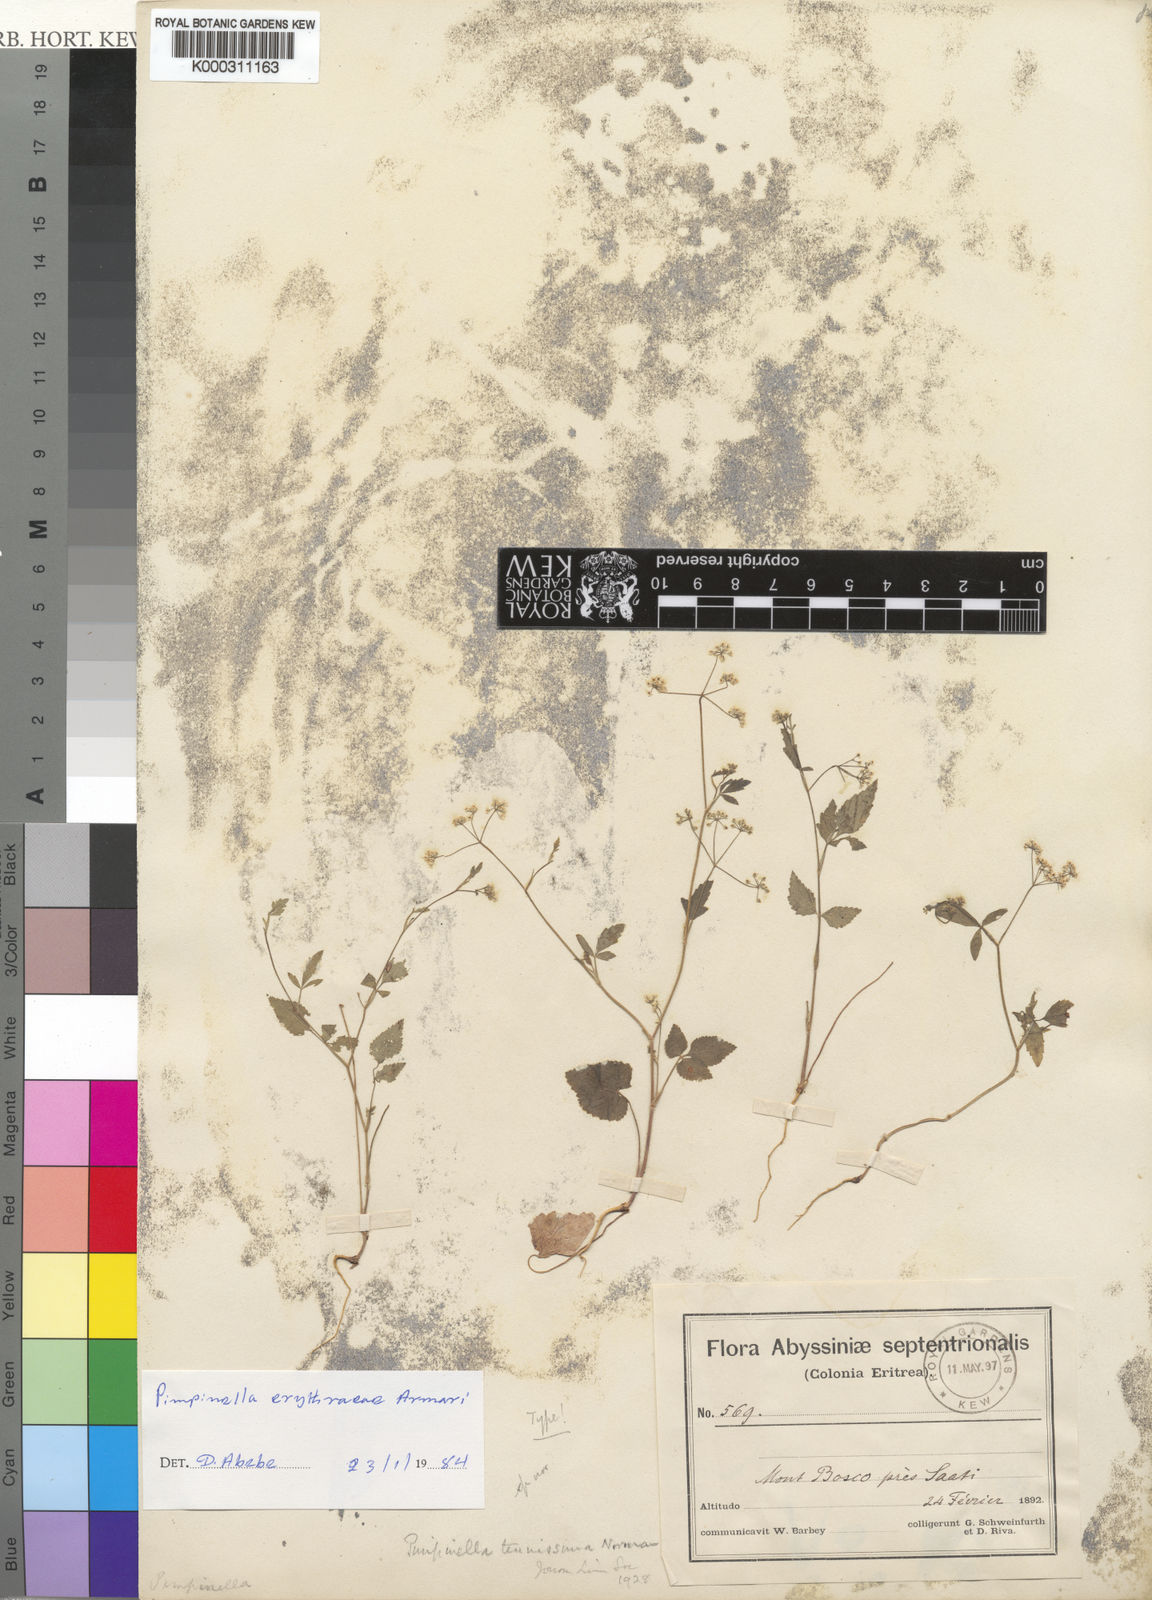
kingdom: Plantae
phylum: Tracheophyta
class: Magnoliopsida
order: Apiales
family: Apiaceae
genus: Pimpinella
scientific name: Pimpinella erythraeae
